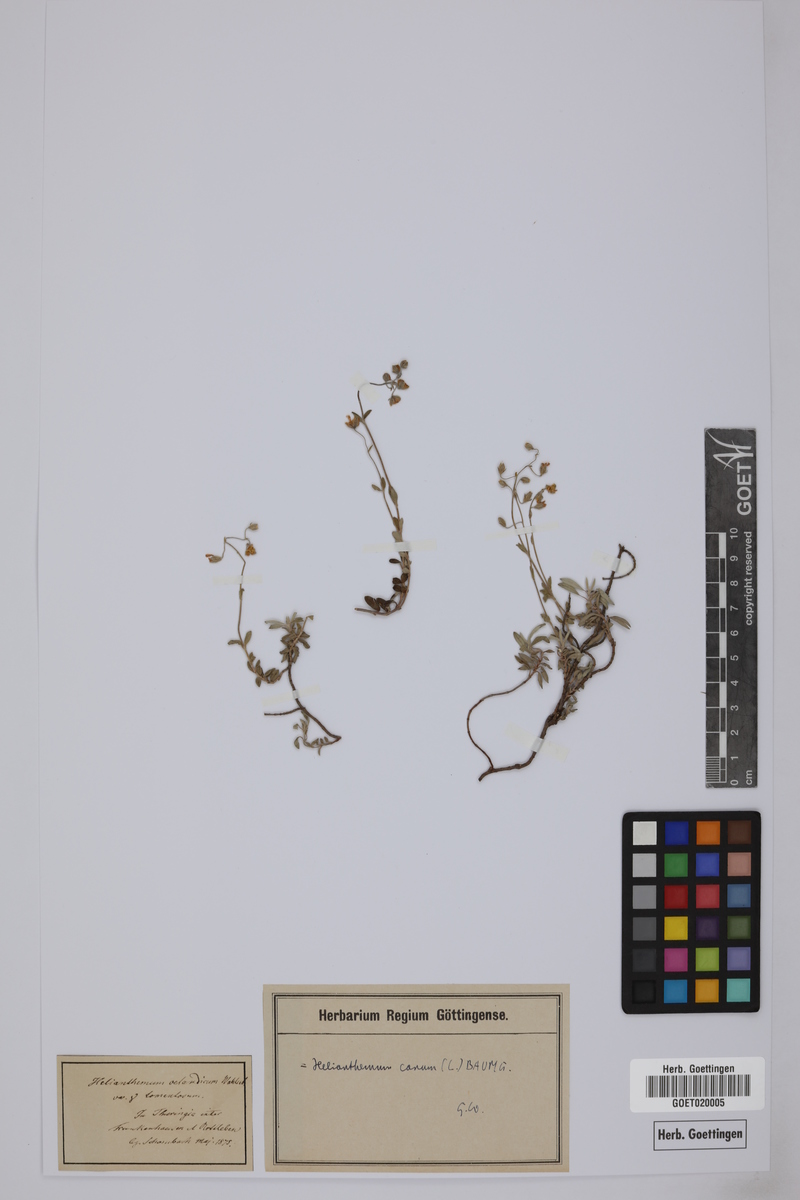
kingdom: Plantae
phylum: Tracheophyta
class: Magnoliopsida
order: Malvales
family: Cistaceae
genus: Helianthemum
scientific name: Helianthemum canum
